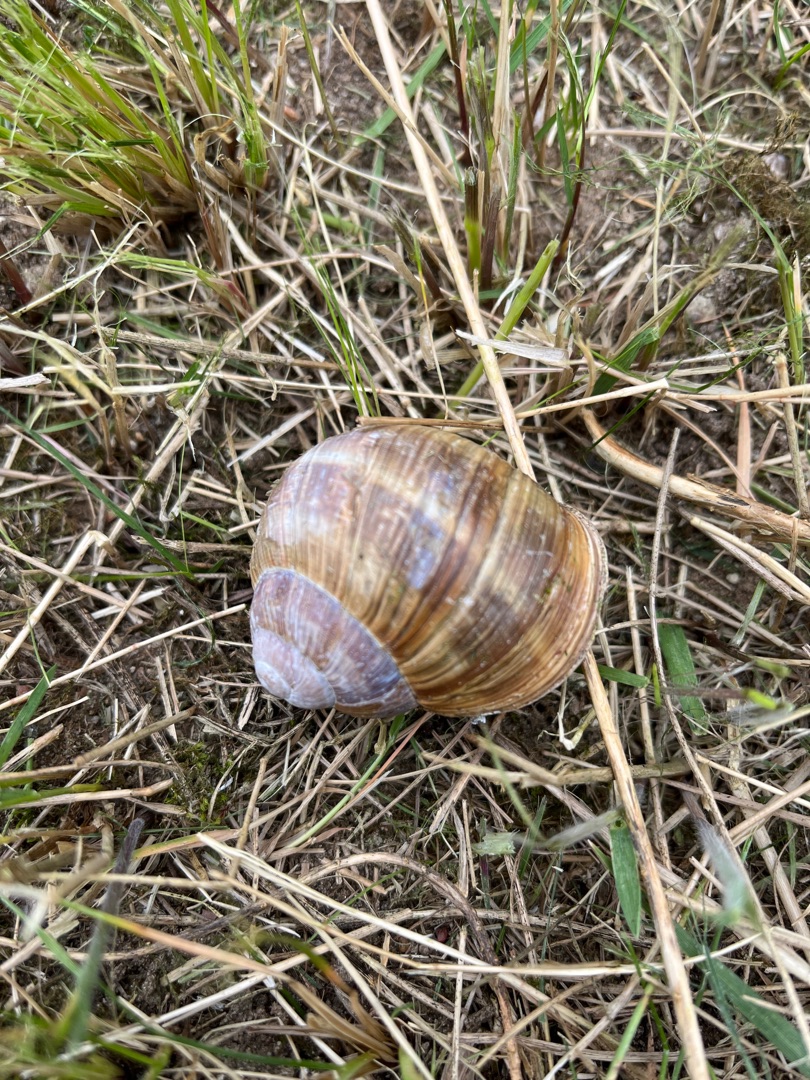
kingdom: Animalia
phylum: Mollusca
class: Gastropoda
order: Stylommatophora
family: Helicidae
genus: Helix
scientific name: Helix pomatia
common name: Vinbjergsnegl
